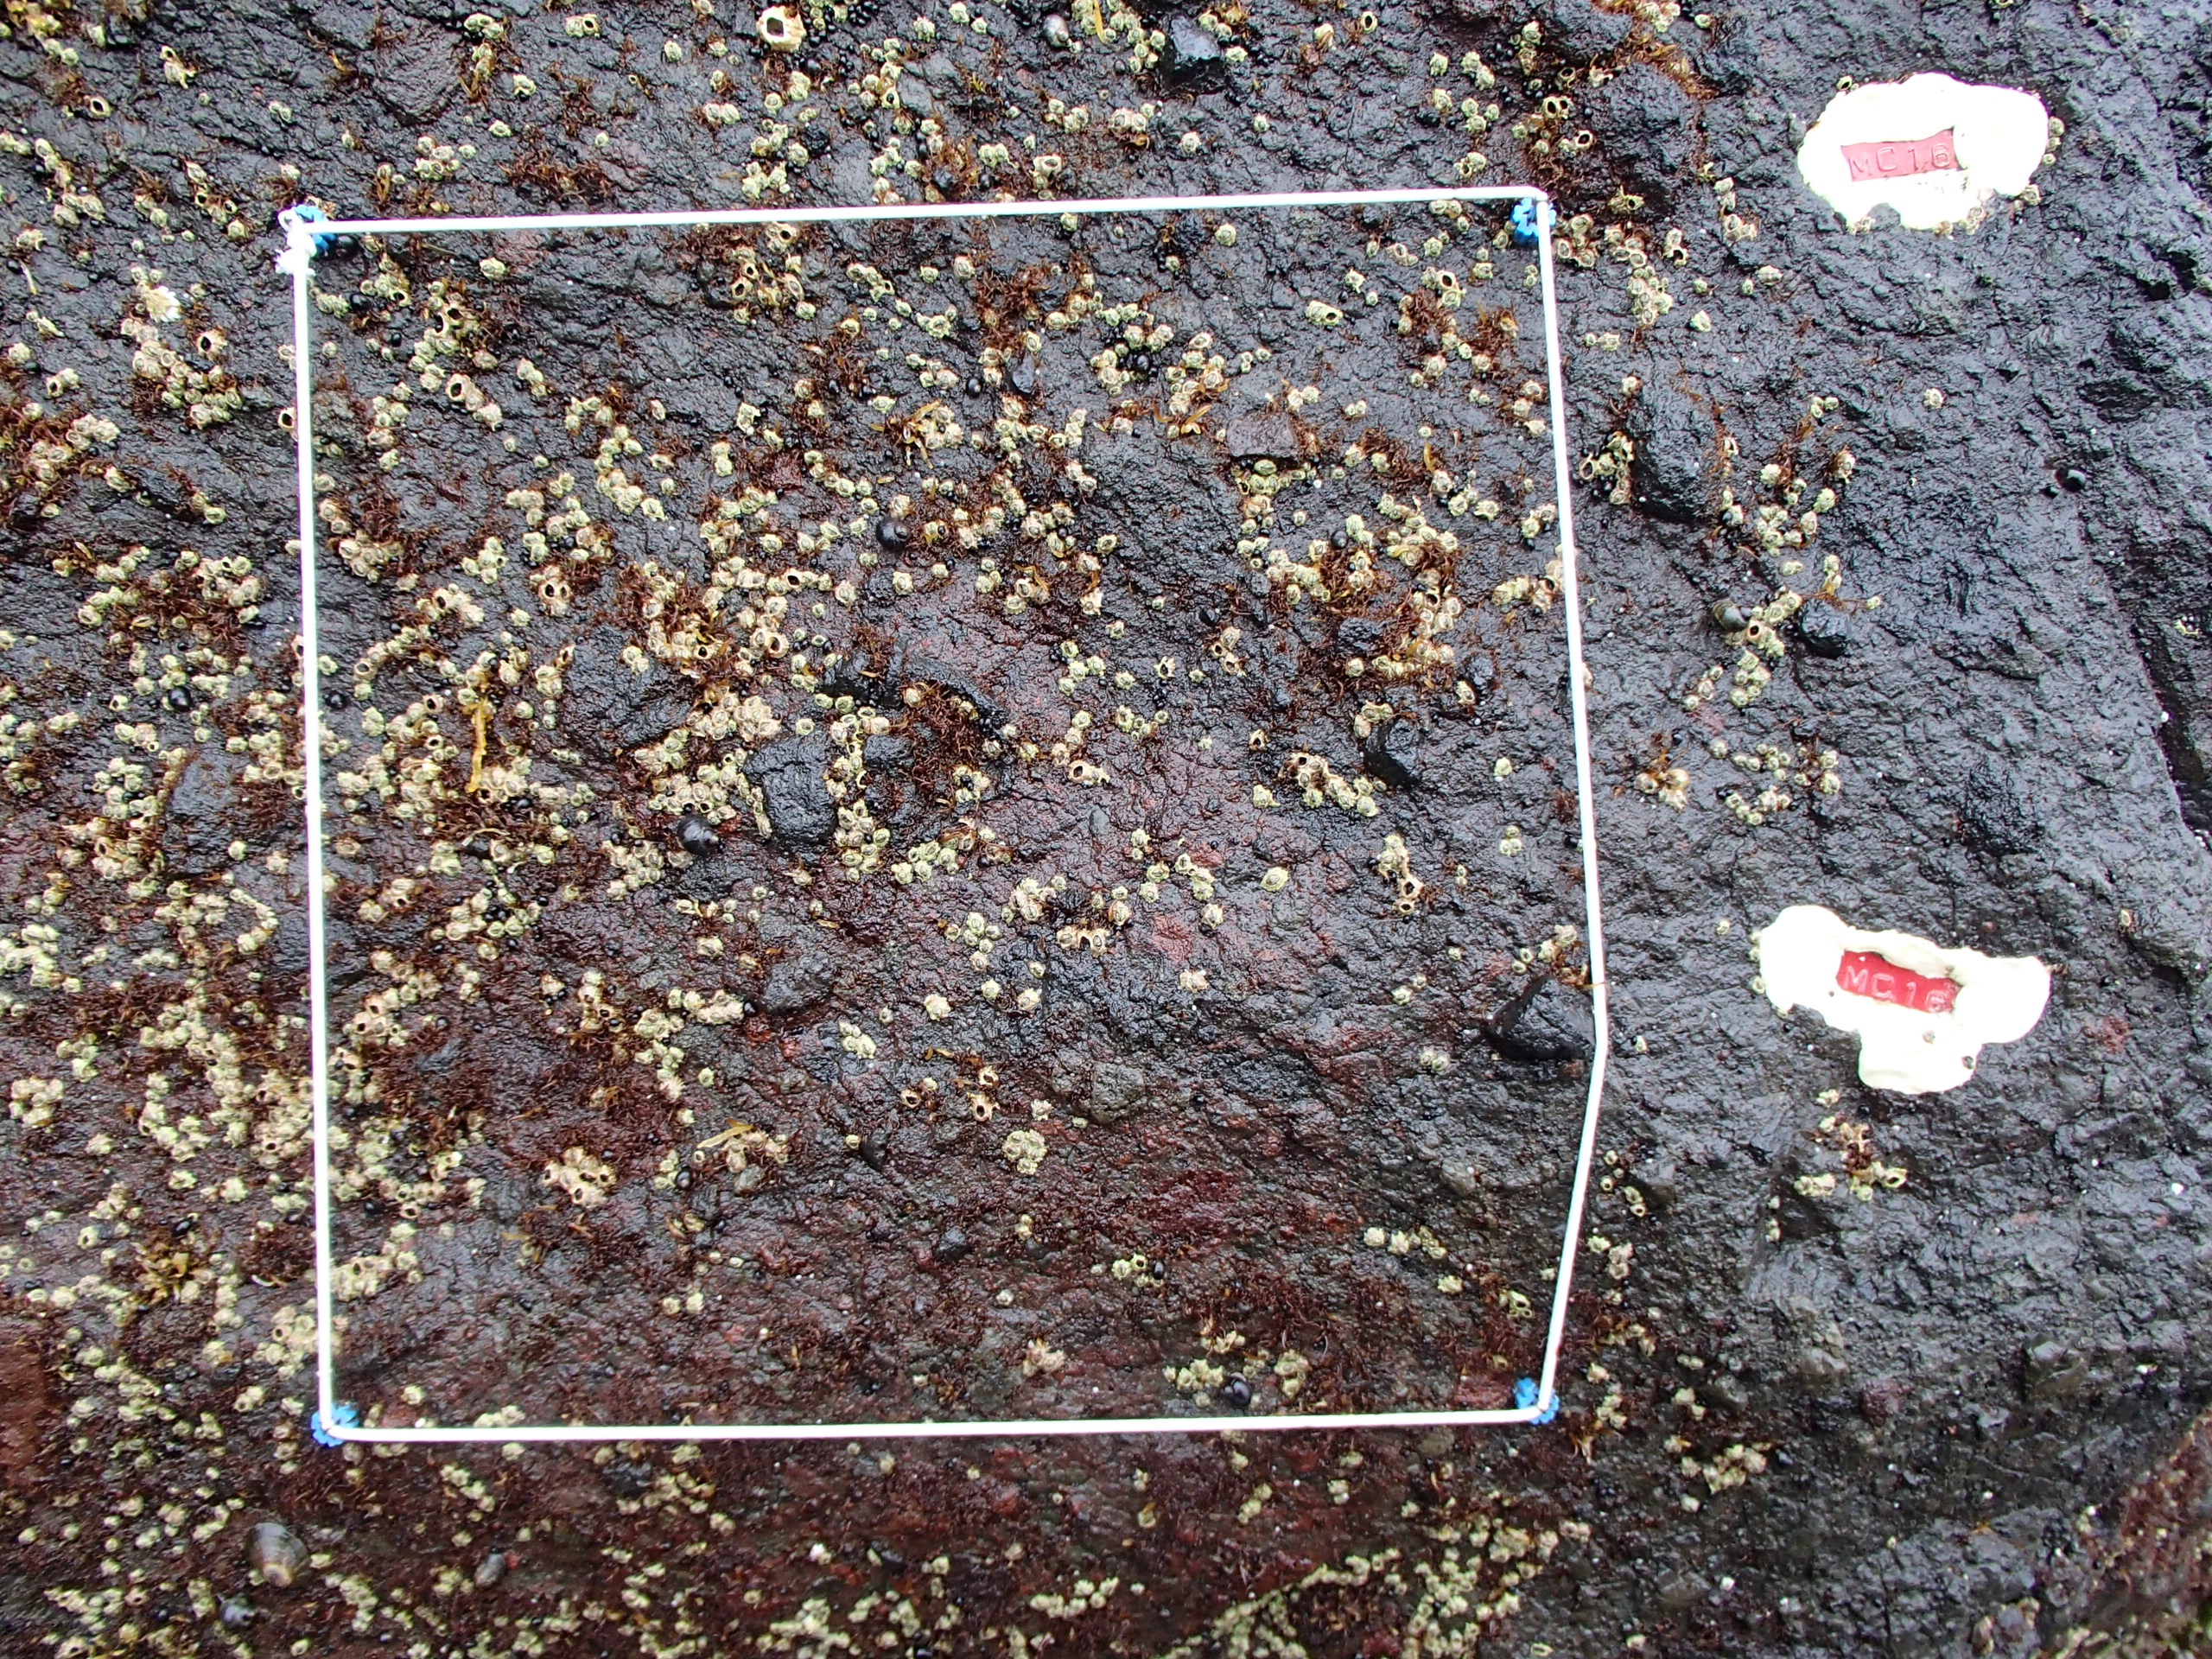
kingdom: Plantae
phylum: Rhodophyta
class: Florideophyceae
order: Gigartinales
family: Endocladiaceae
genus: Gloiopeltis
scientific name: Gloiopeltis furcata
